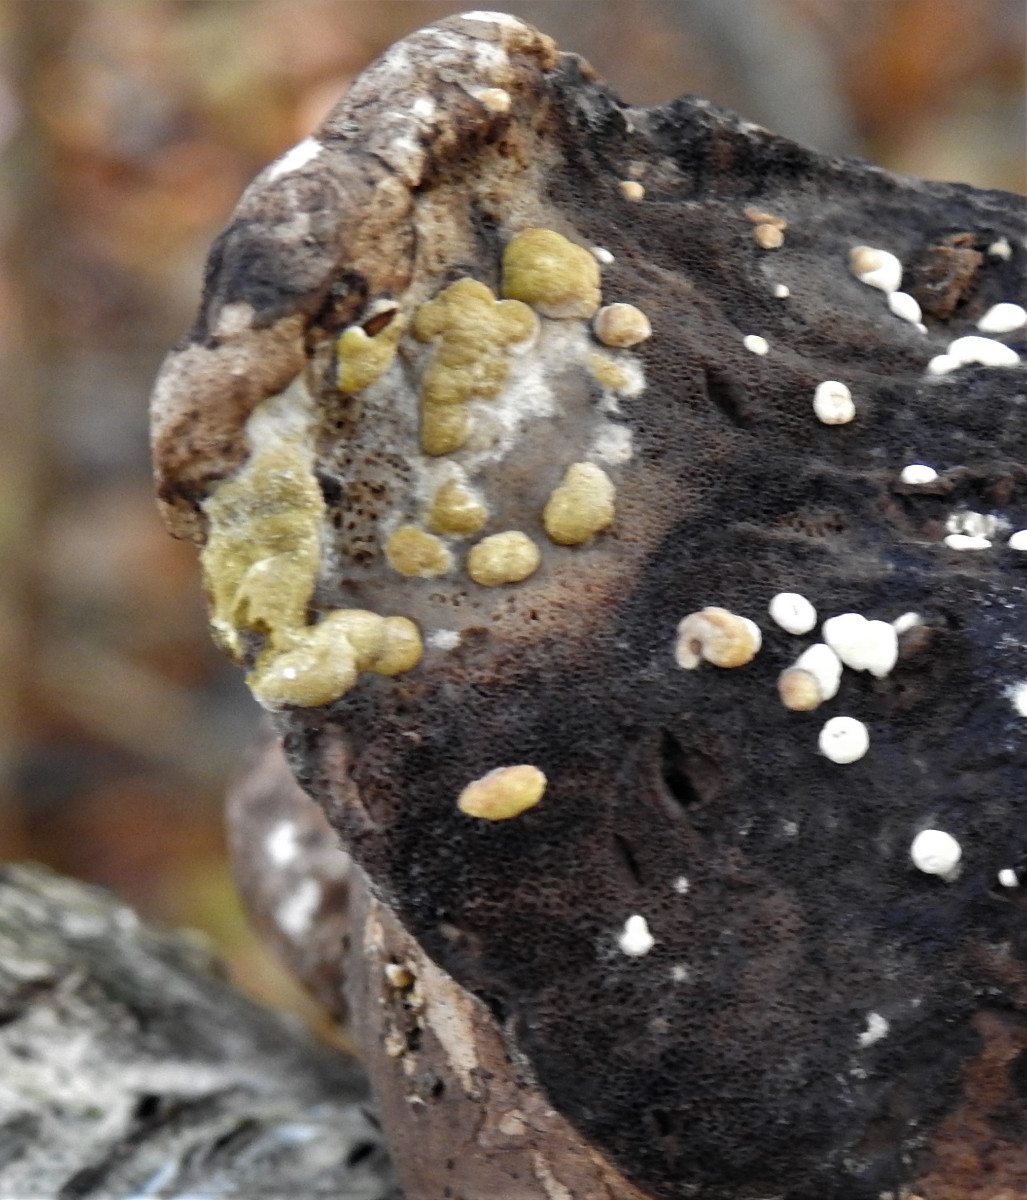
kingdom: Fungi
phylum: Ascomycota
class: Sordariomycetes
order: Hypocreales
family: Hypocreaceae
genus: Trichoderma
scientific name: Trichoderma pulvinatum
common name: snyltende kødkerne
